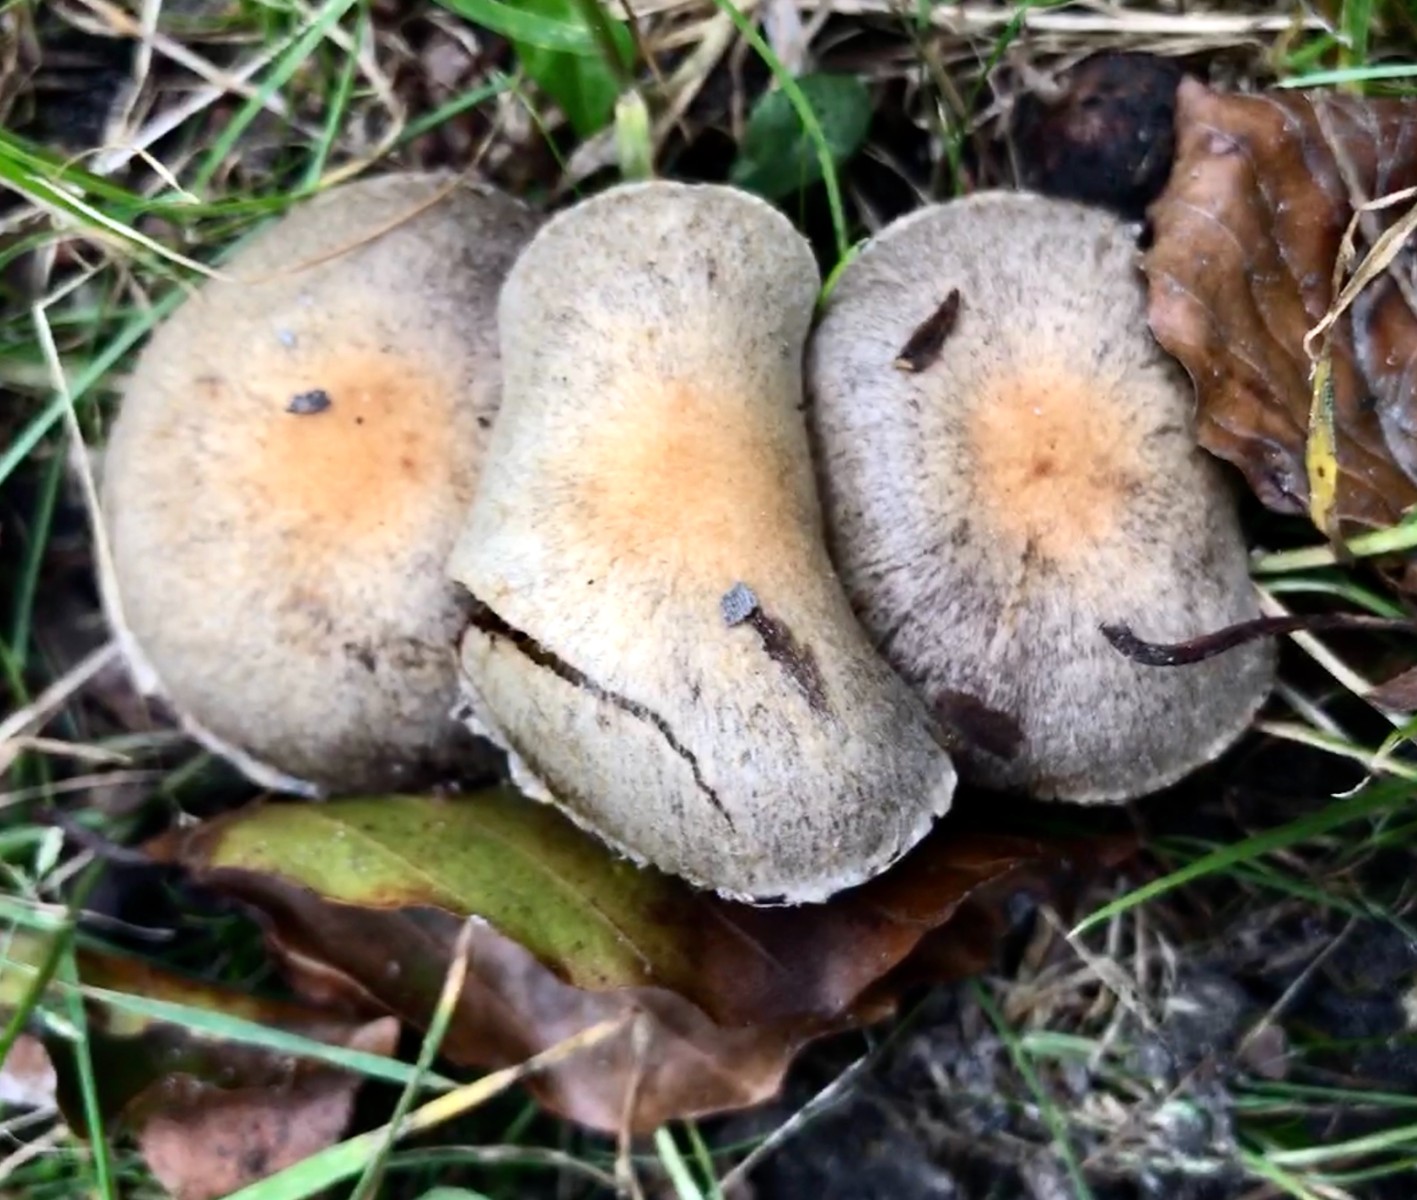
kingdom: Fungi
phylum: Basidiomycota
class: Agaricomycetes
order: Agaricales
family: Psathyrellaceae
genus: Lacrymaria
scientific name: Lacrymaria lacrymabunda
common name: grædende mørkhat
